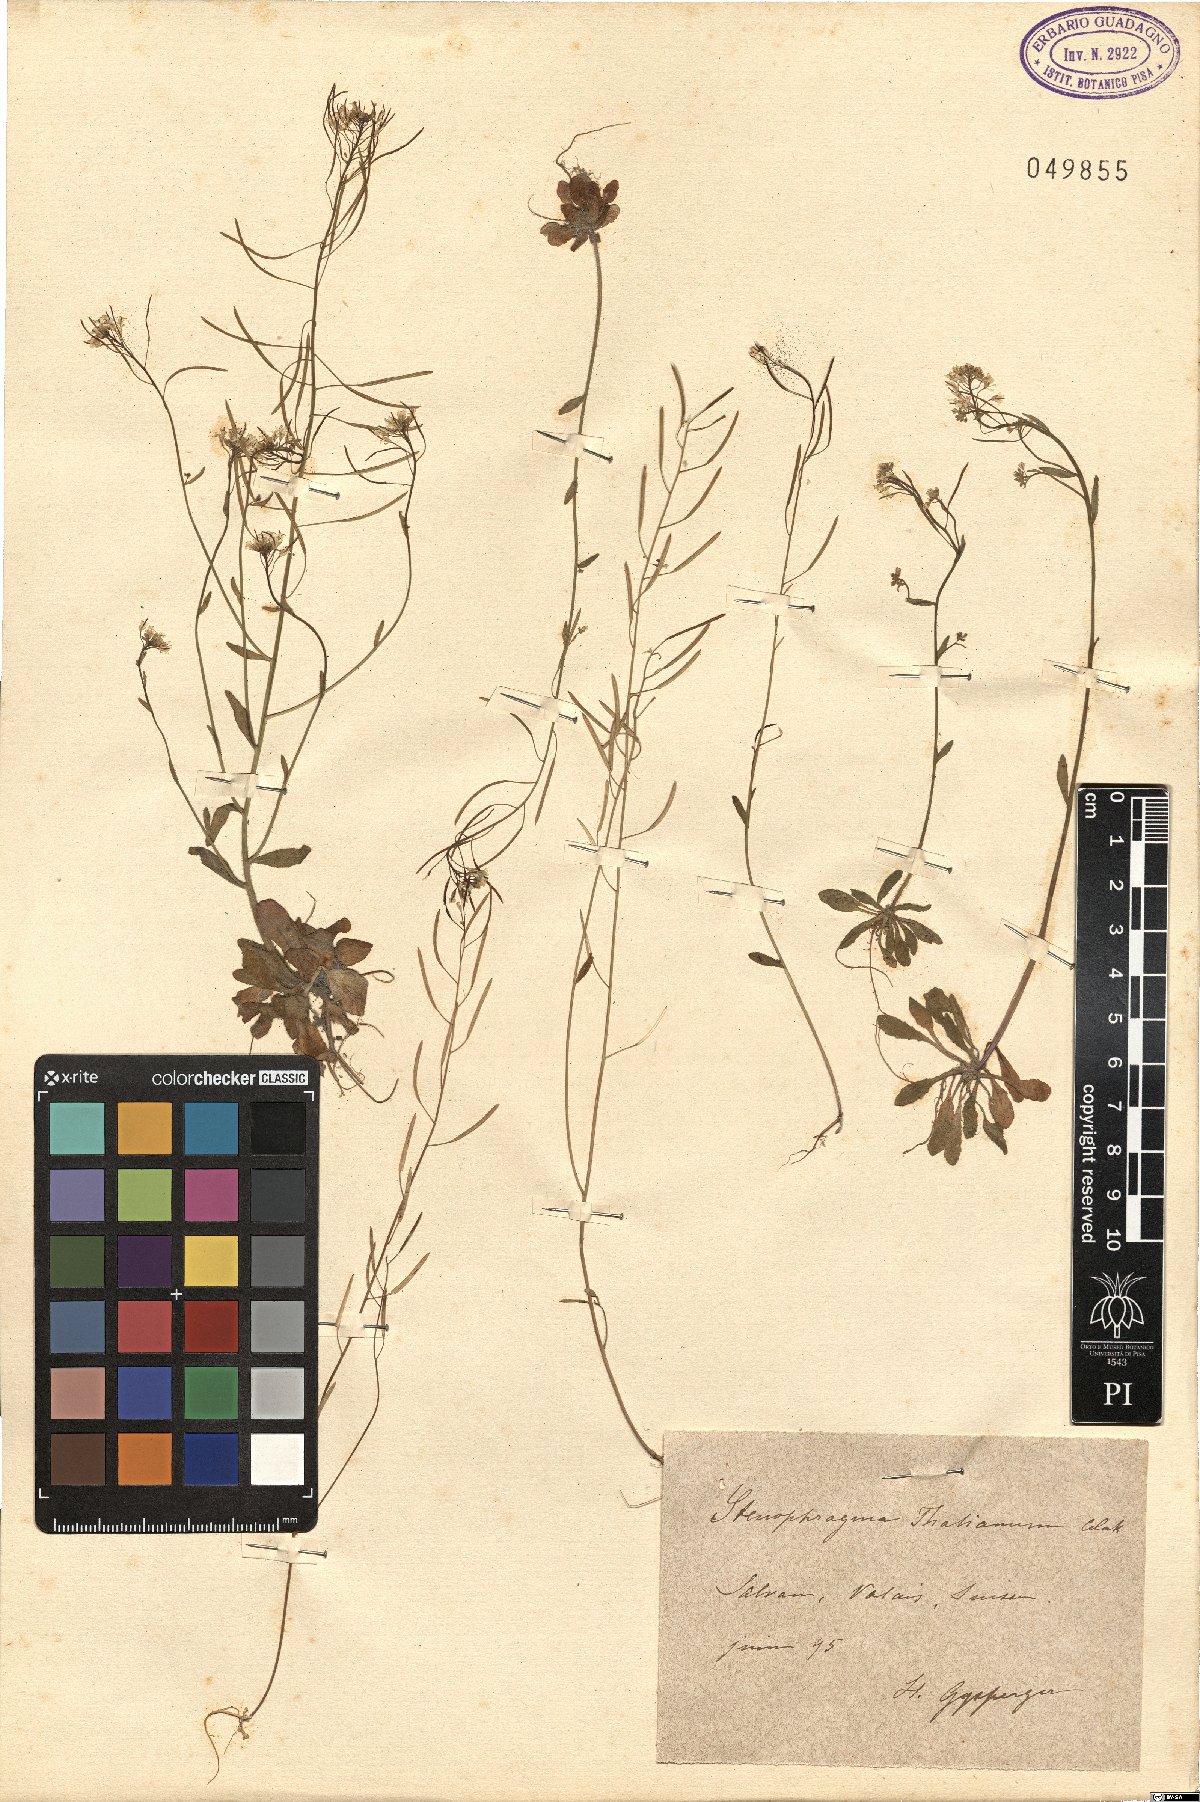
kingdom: Plantae
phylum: Tracheophyta
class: Magnoliopsida
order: Brassicales
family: Brassicaceae
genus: Arabidopsis
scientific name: Arabidopsis thaliana
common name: Thale cress
